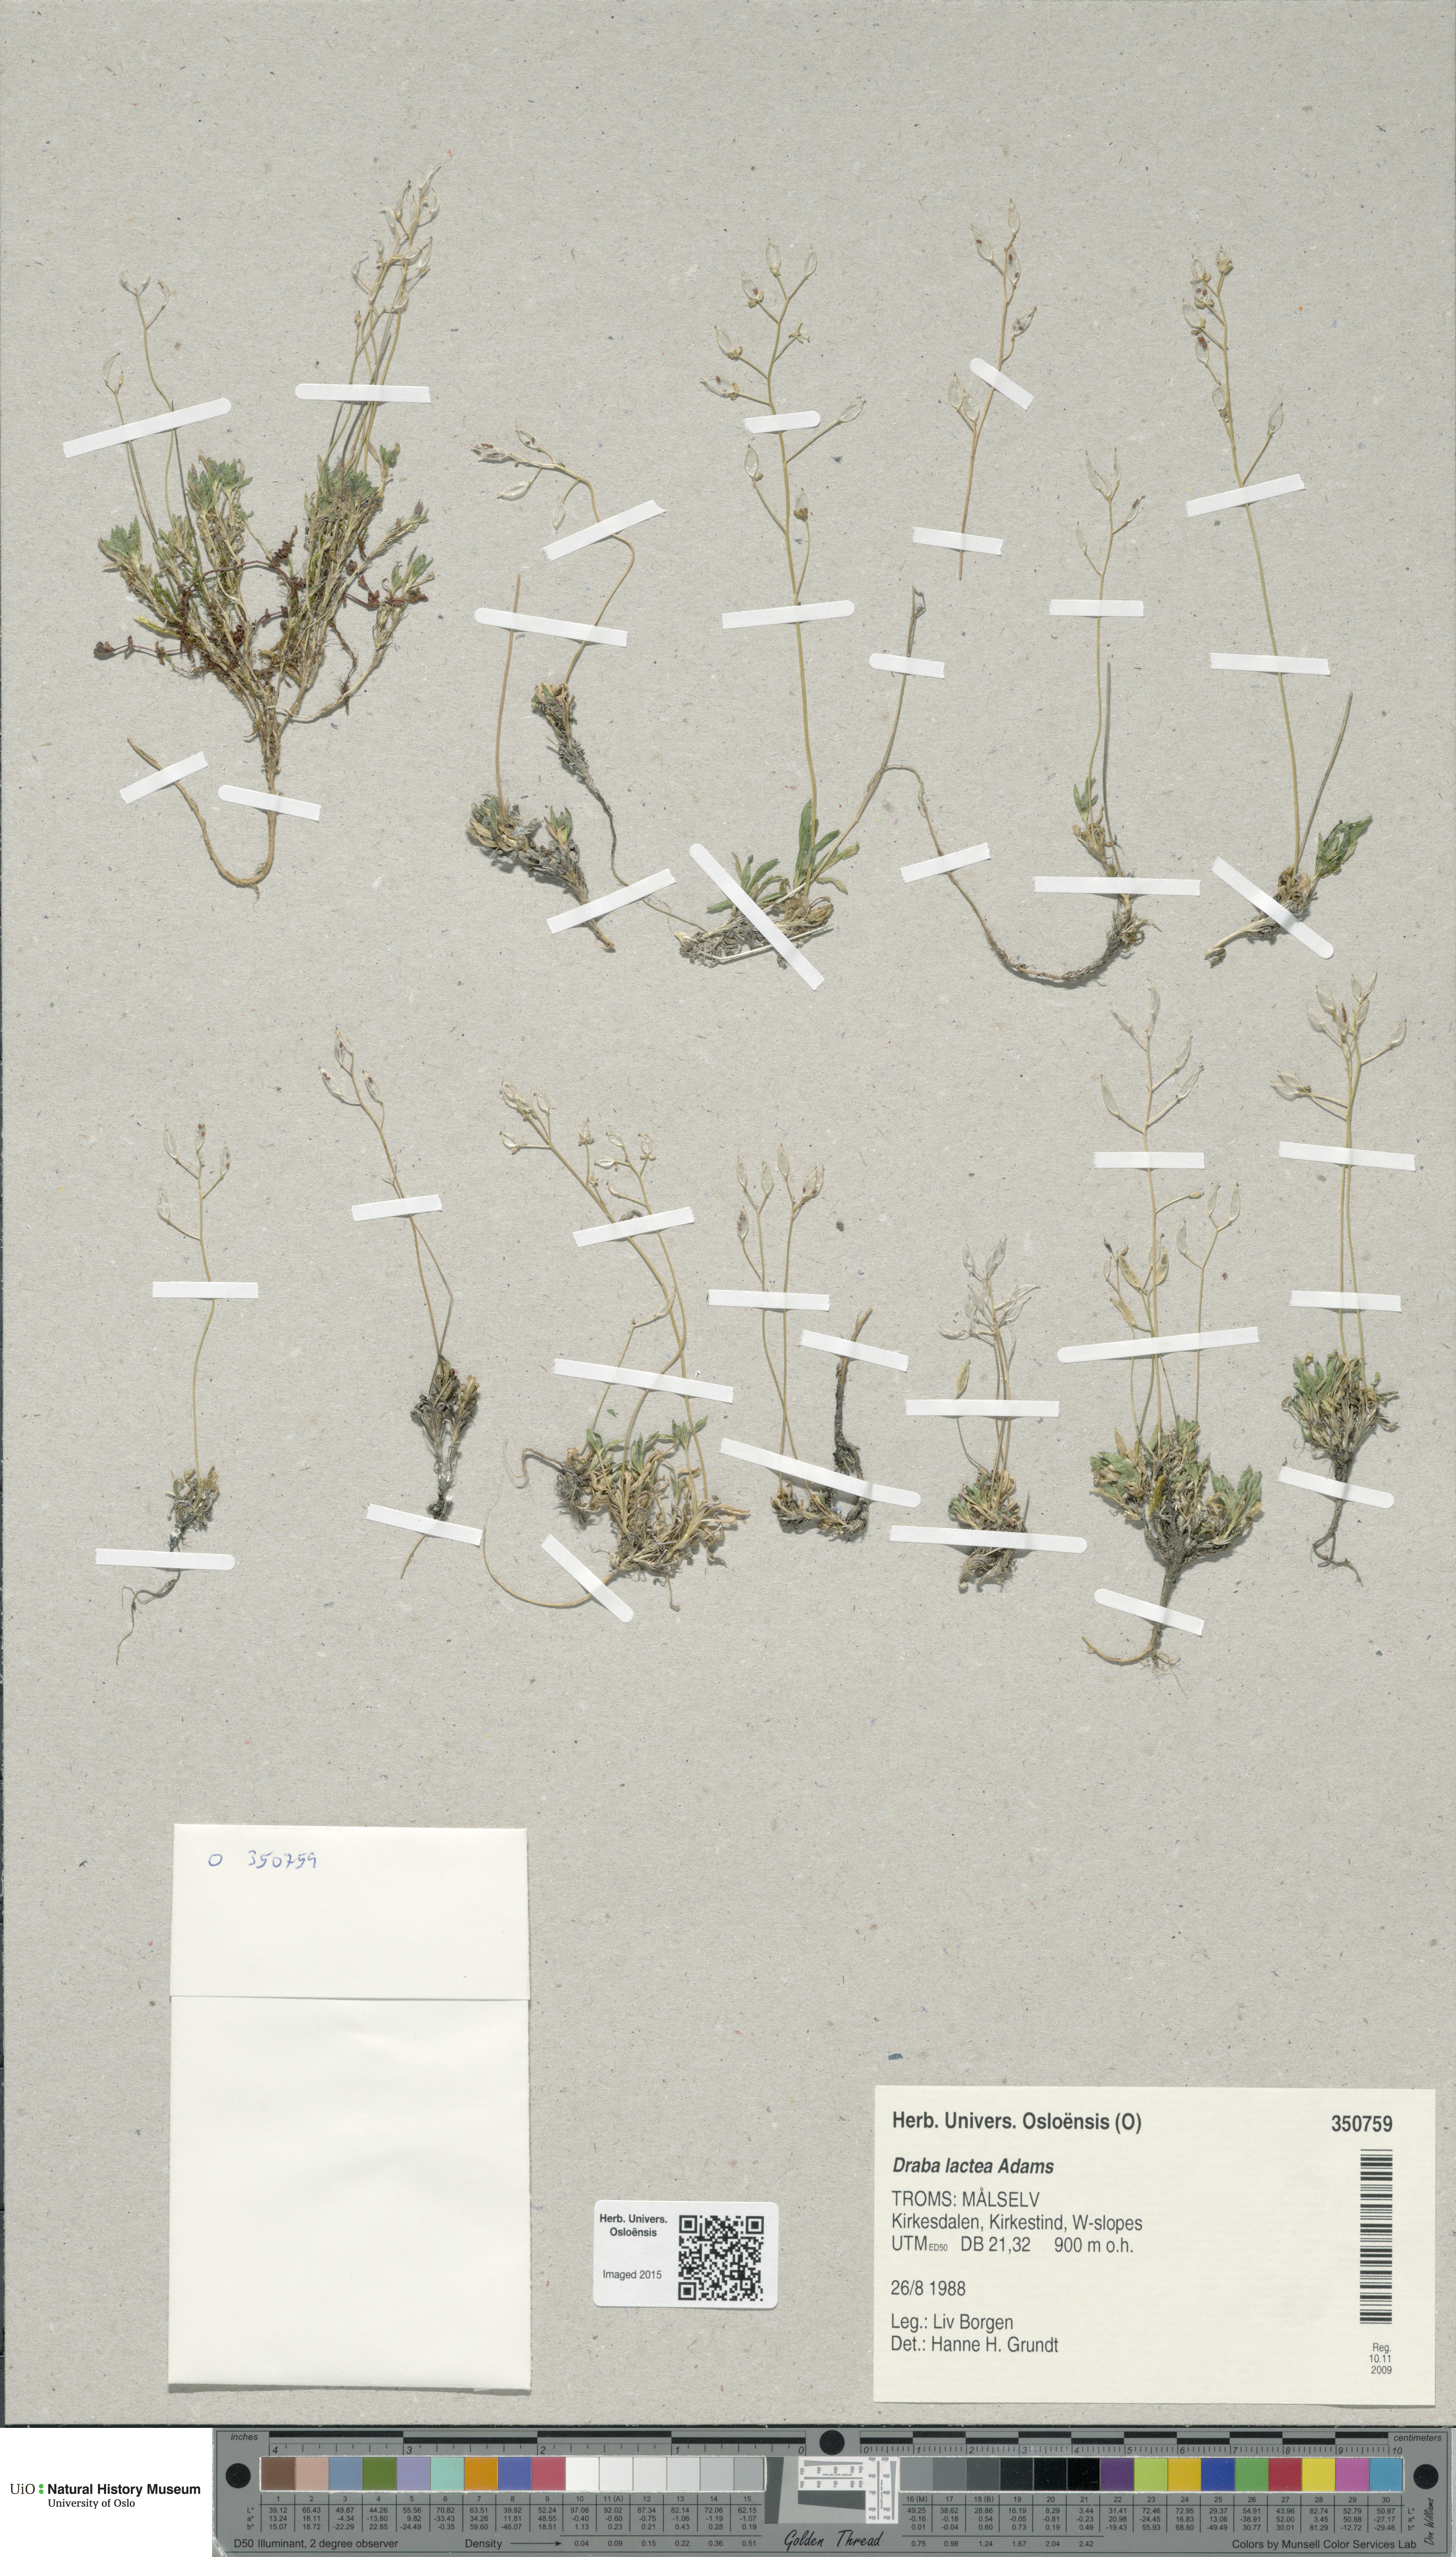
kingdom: Plantae
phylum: Tracheophyta
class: Magnoliopsida
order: Brassicales
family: Brassicaceae
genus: Draba
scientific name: Draba lactea
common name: Milky draba
